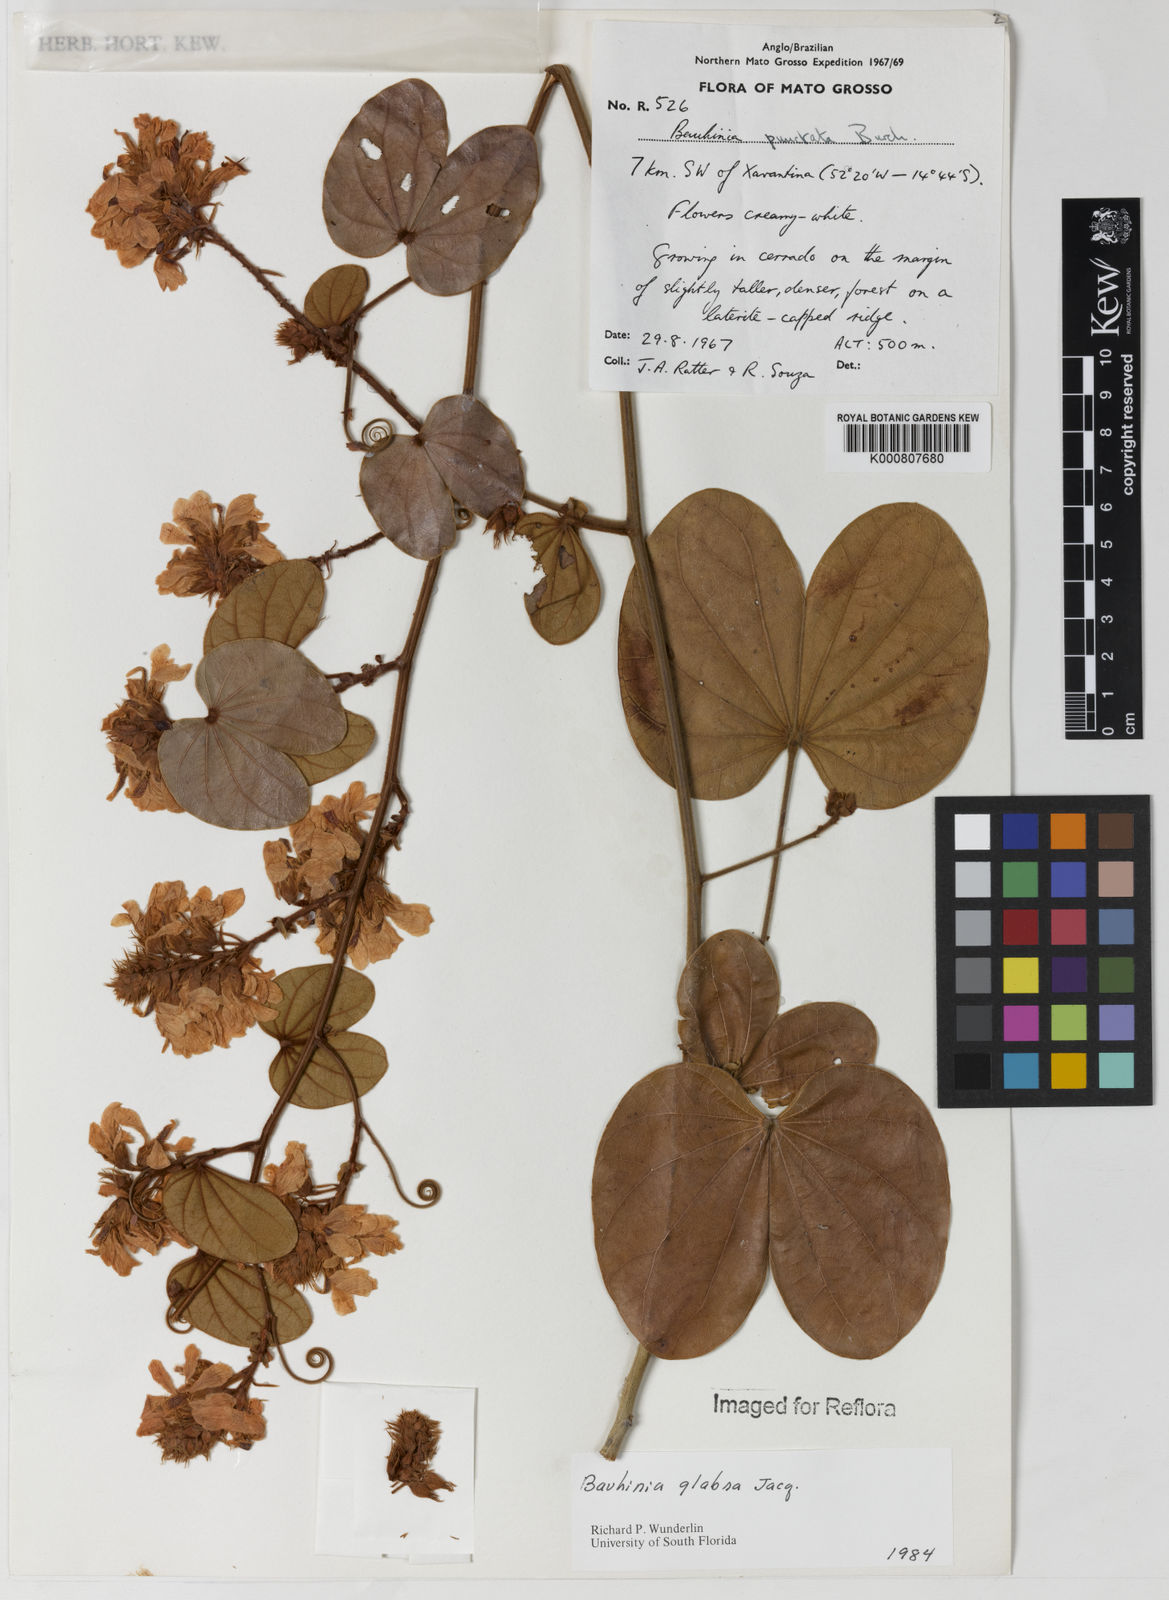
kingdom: Plantae
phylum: Tracheophyta
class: Magnoliopsida
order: Fabales
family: Fabaceae
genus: Schnella
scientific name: Schnella glabra
